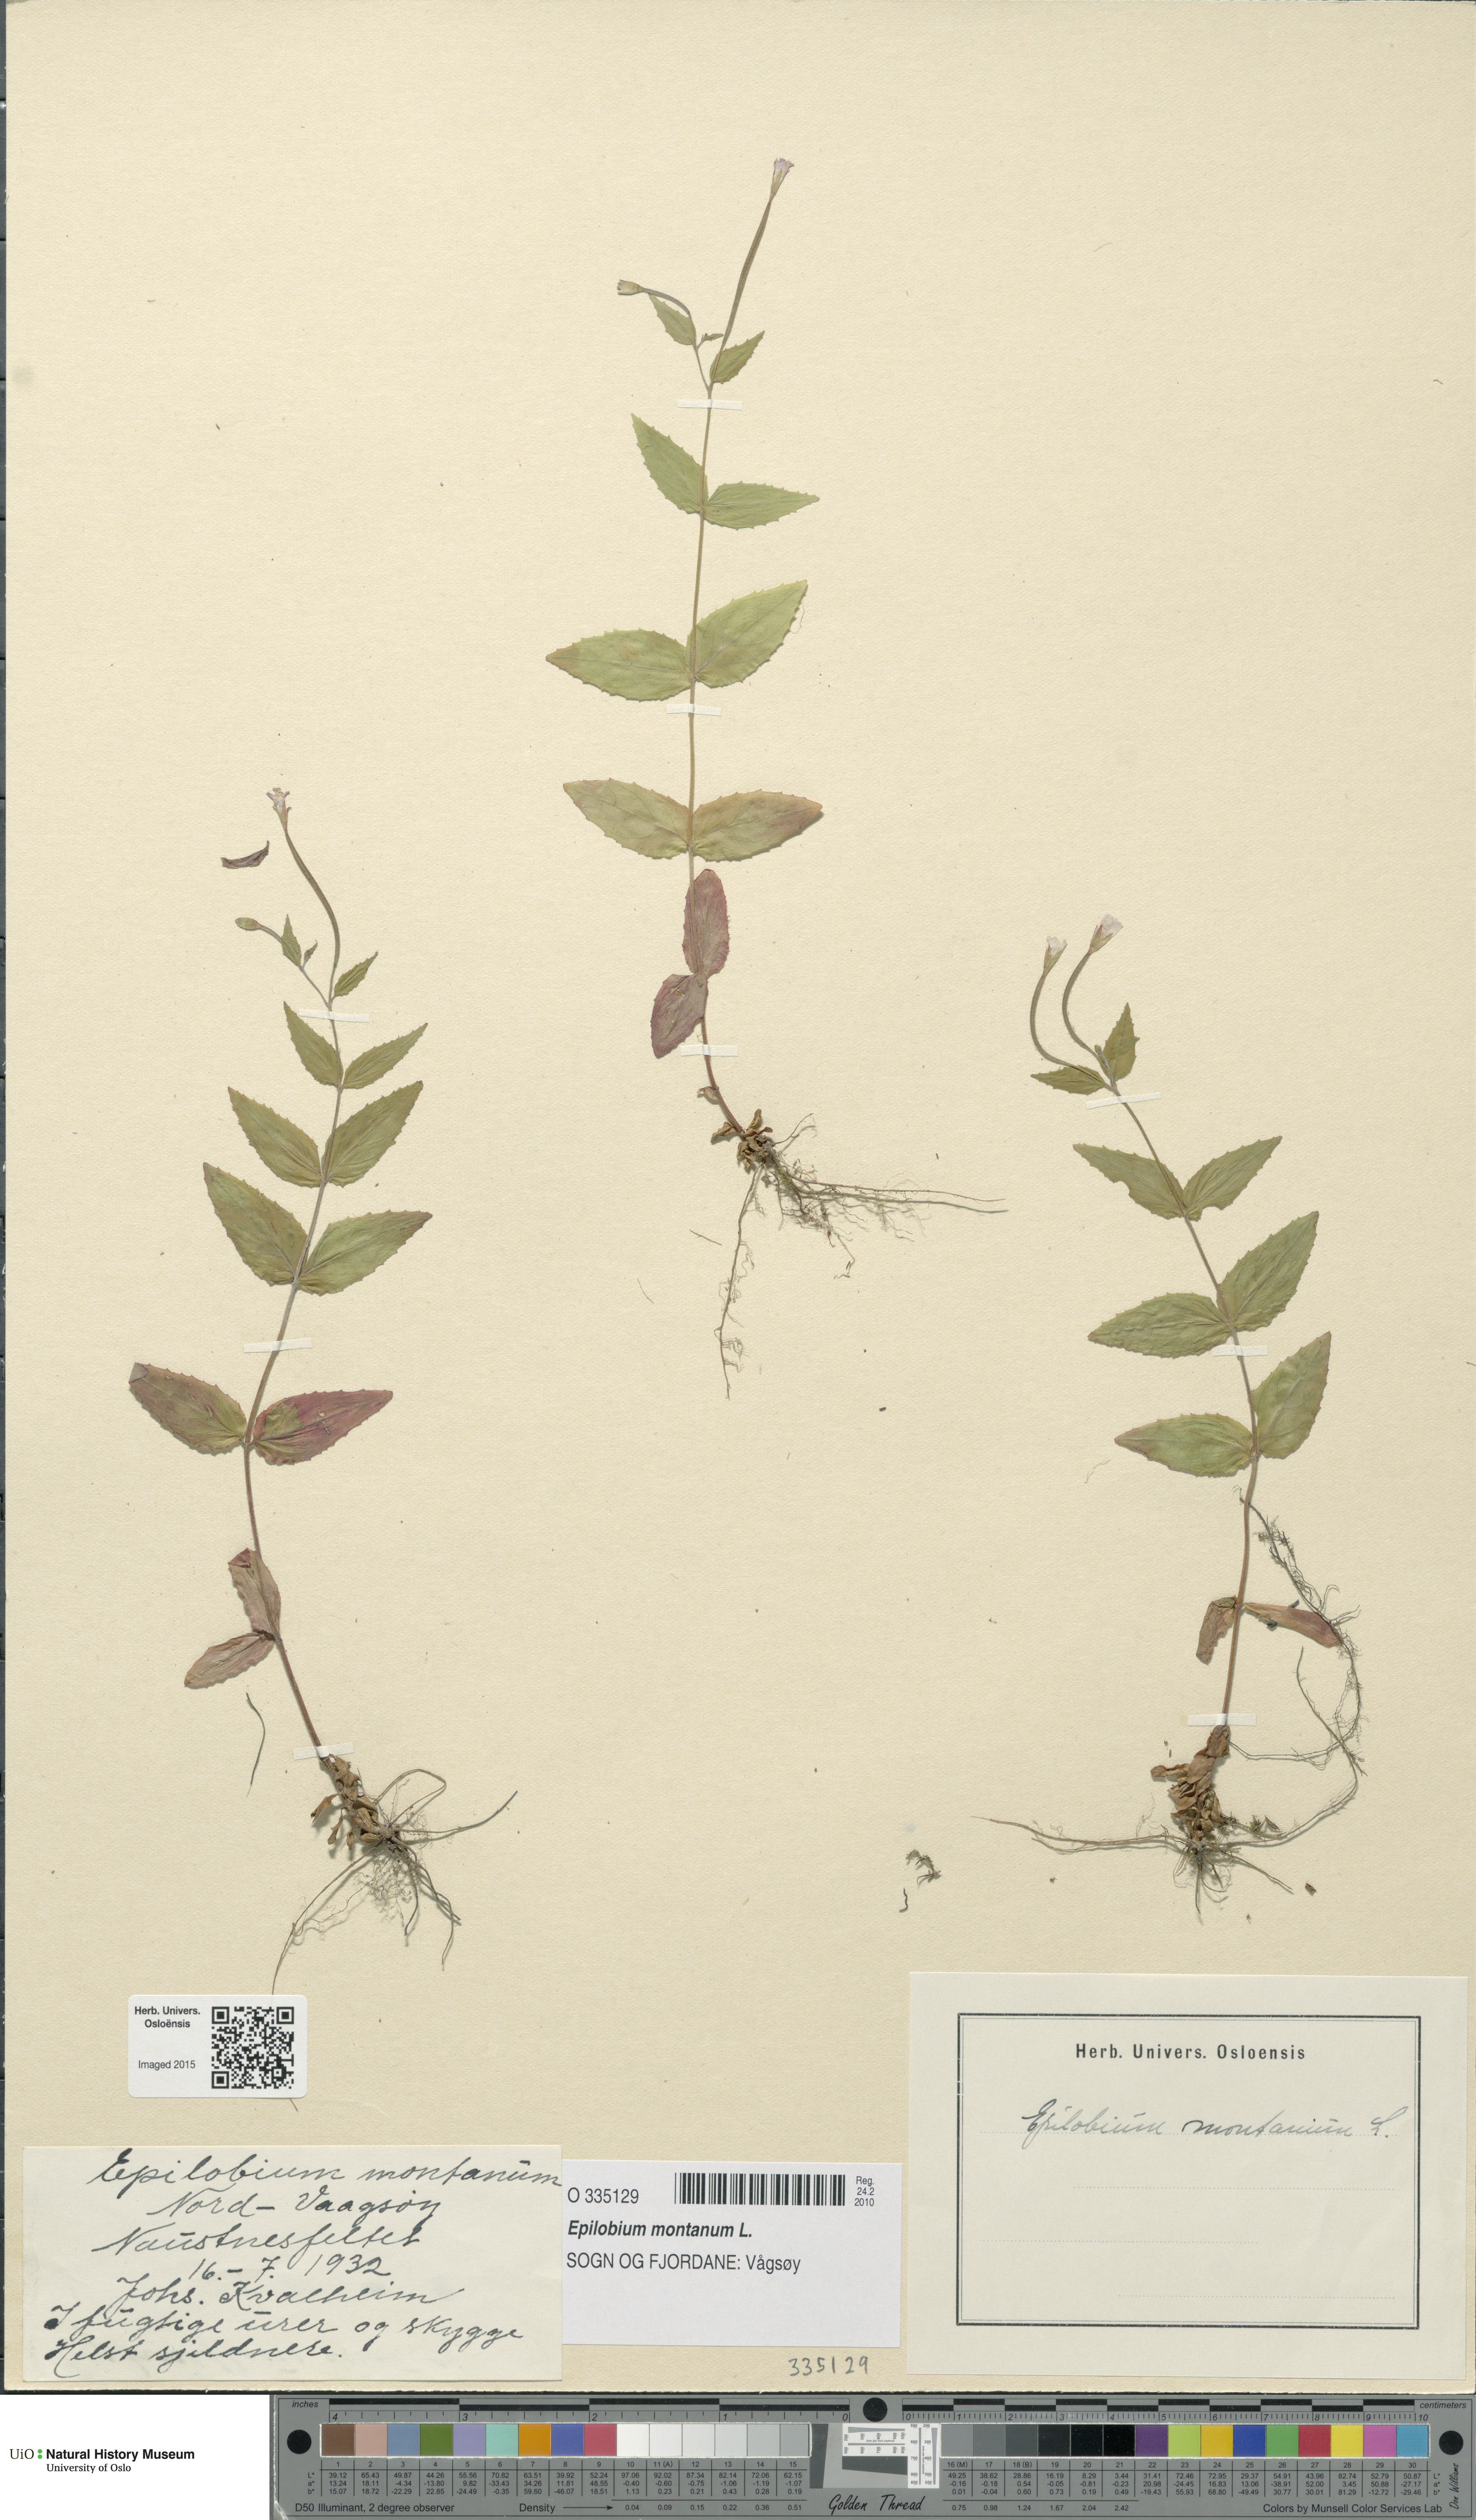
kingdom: Plantae
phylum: Tracheophyta
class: Magnoliopsida
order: Myrtales
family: Onagraceae
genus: Epilobium
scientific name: Epilobium montanum
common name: Broad-leaved willowherb
